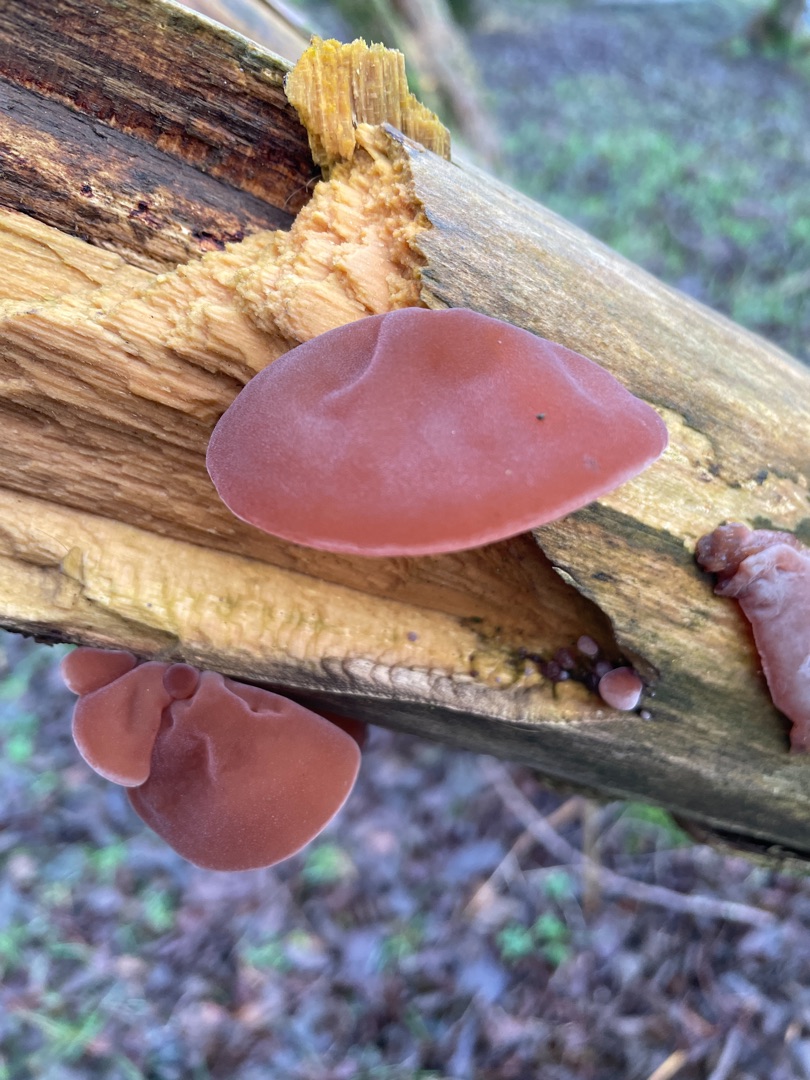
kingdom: Fungi
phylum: Basidiomycota
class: Agaricomycetes
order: Auriculariales
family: Auriculariaceae
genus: Auricularia
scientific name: Auricularia auricula-judae
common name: Almindelig judasøre
